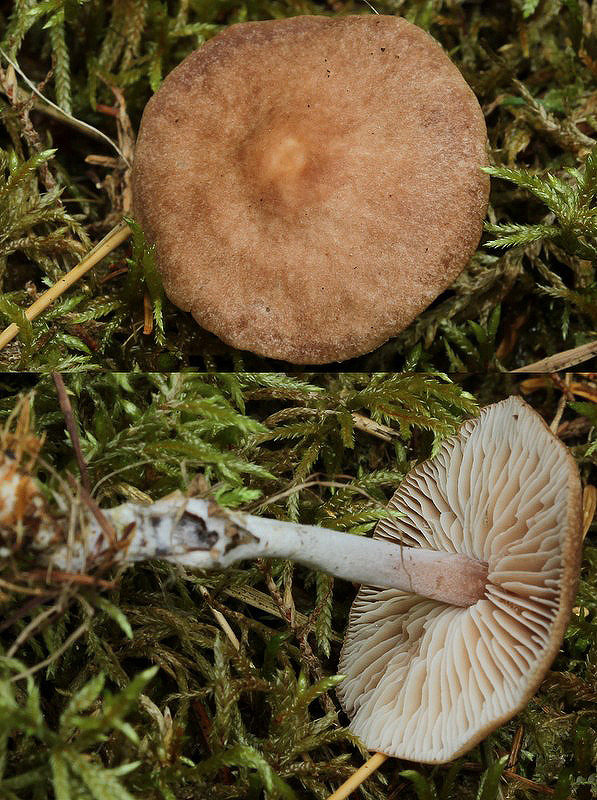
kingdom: Fungi
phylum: Basidiomycota
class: Agaricomycetes
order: Agaricales
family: Omphalotaceae
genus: Gymnopus
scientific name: Gymnopus impudicus
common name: fesen fladhat
